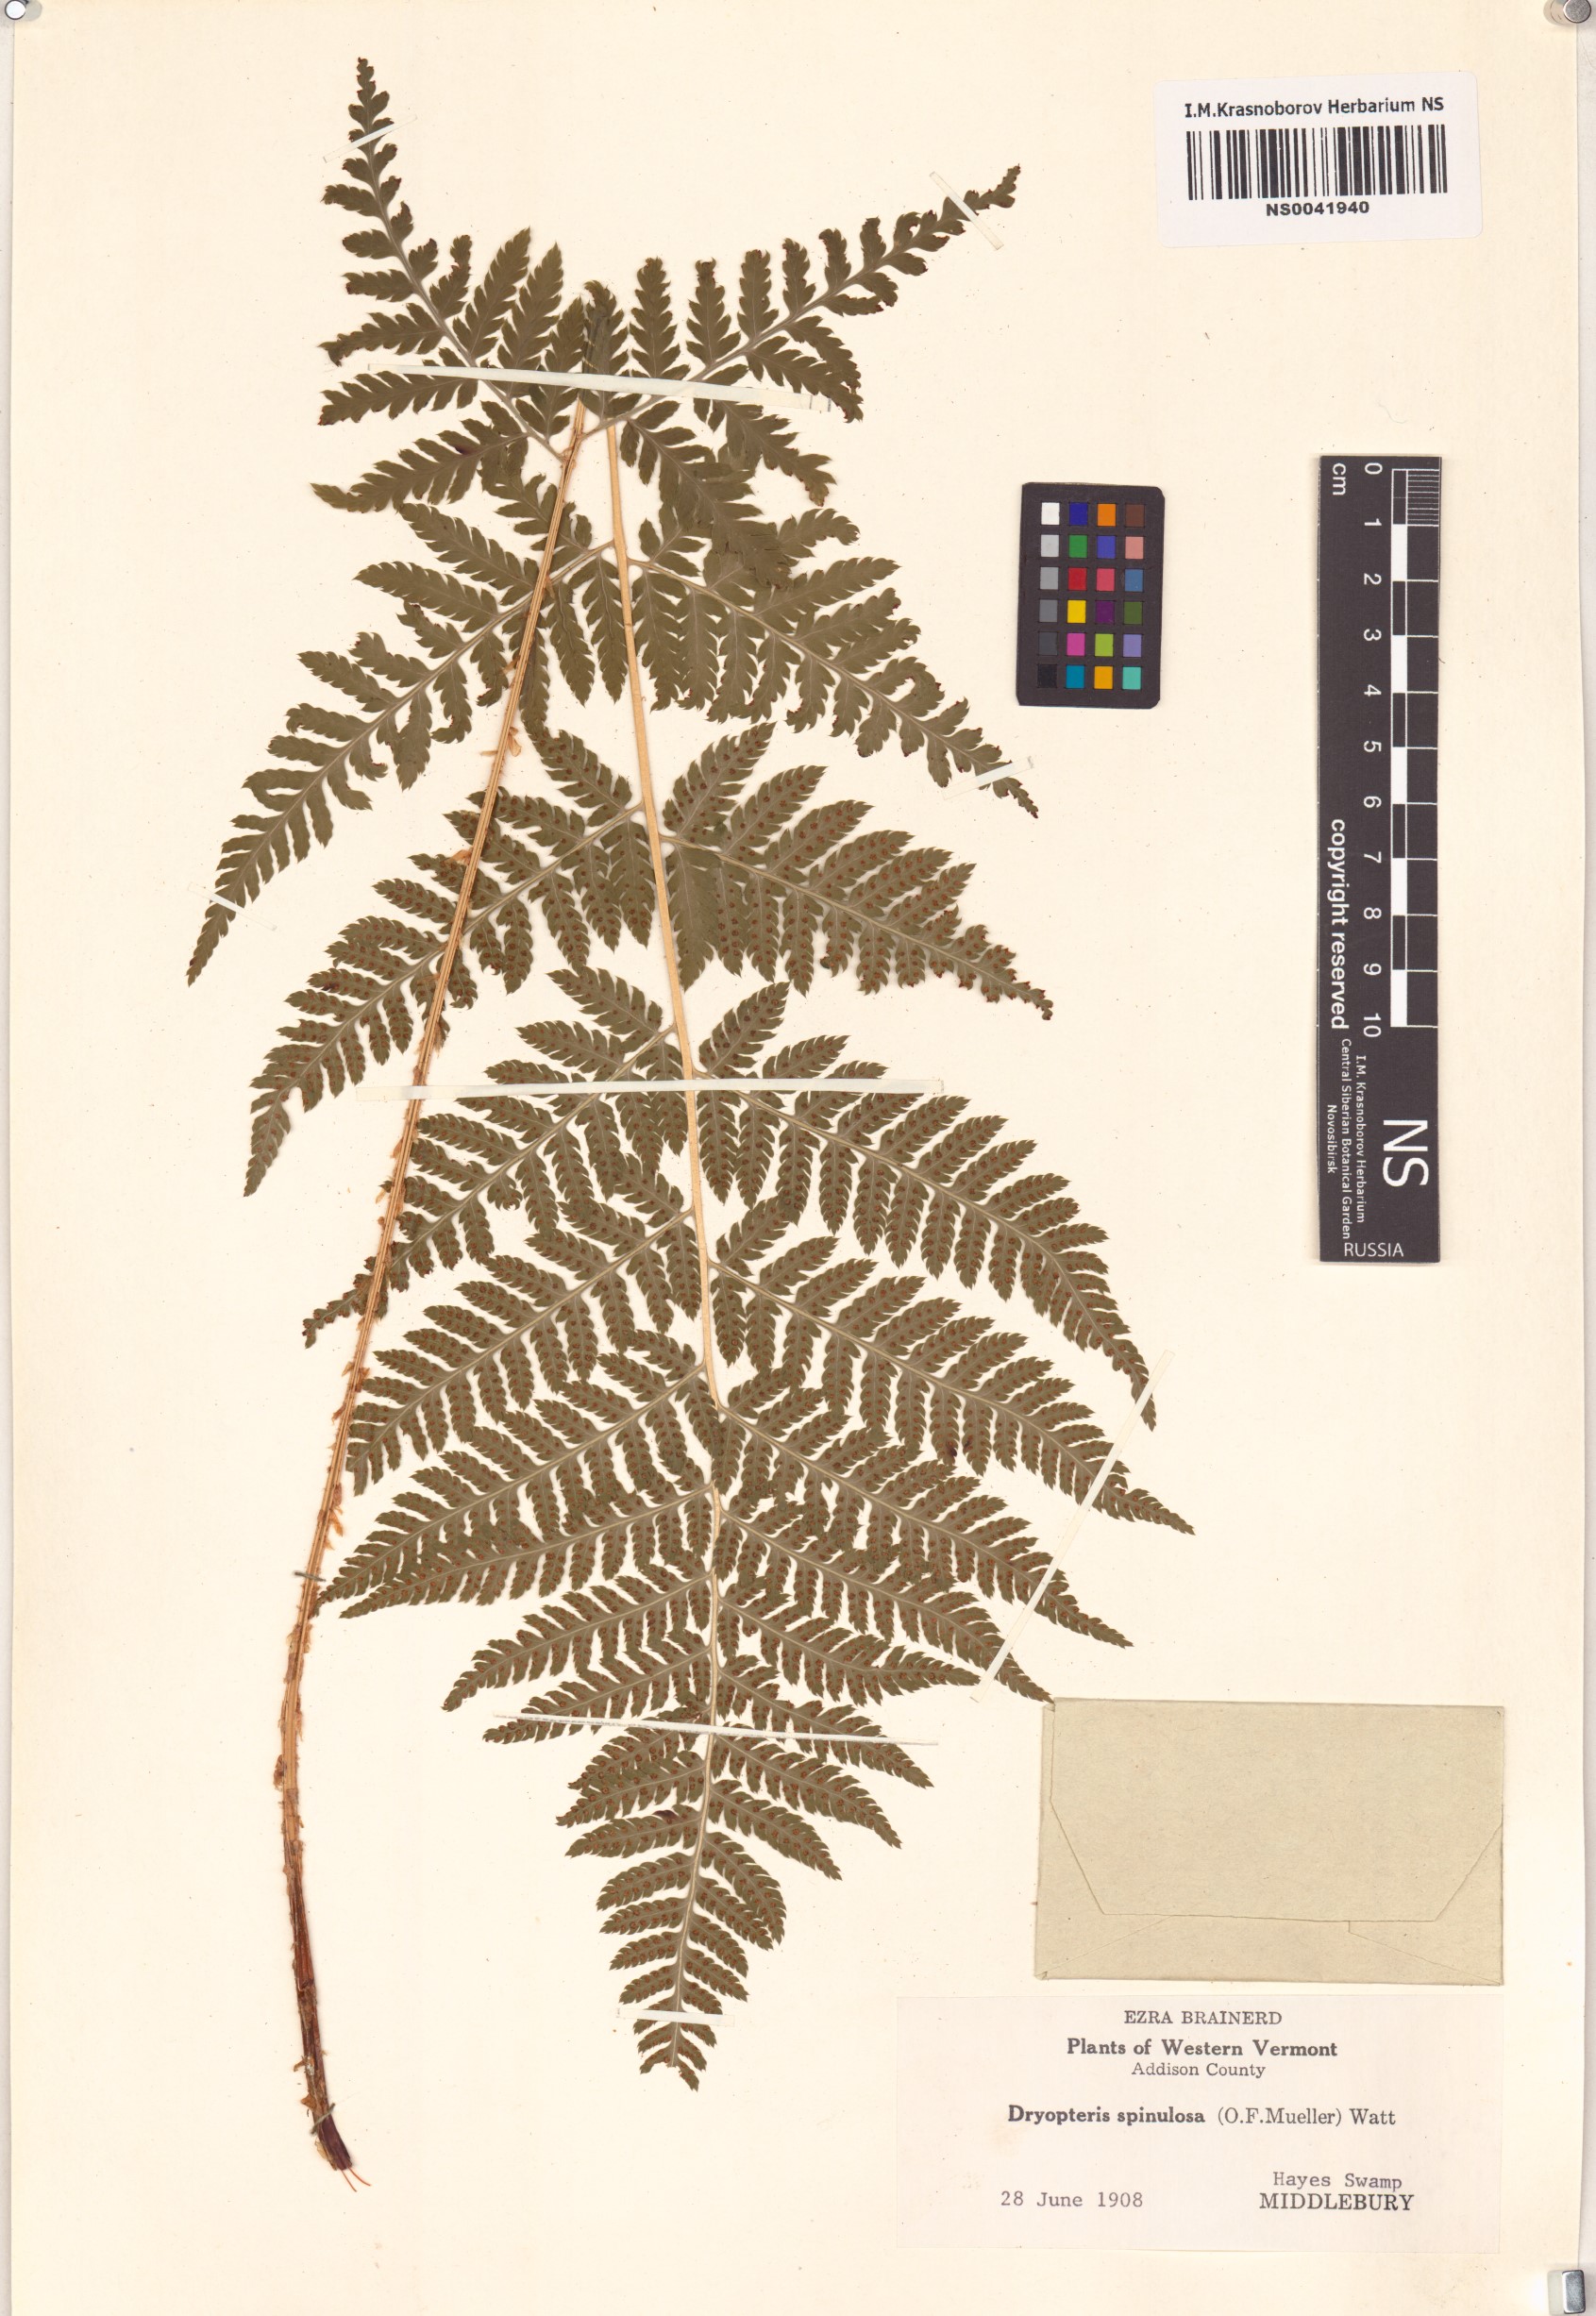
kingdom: Plantae
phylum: Tracheophyta
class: Polypodiopsida
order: Polypodiales
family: Dryopteridaceae
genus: Dryopteris
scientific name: Dryopteris carthusiana
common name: Narrow buckler-fern
